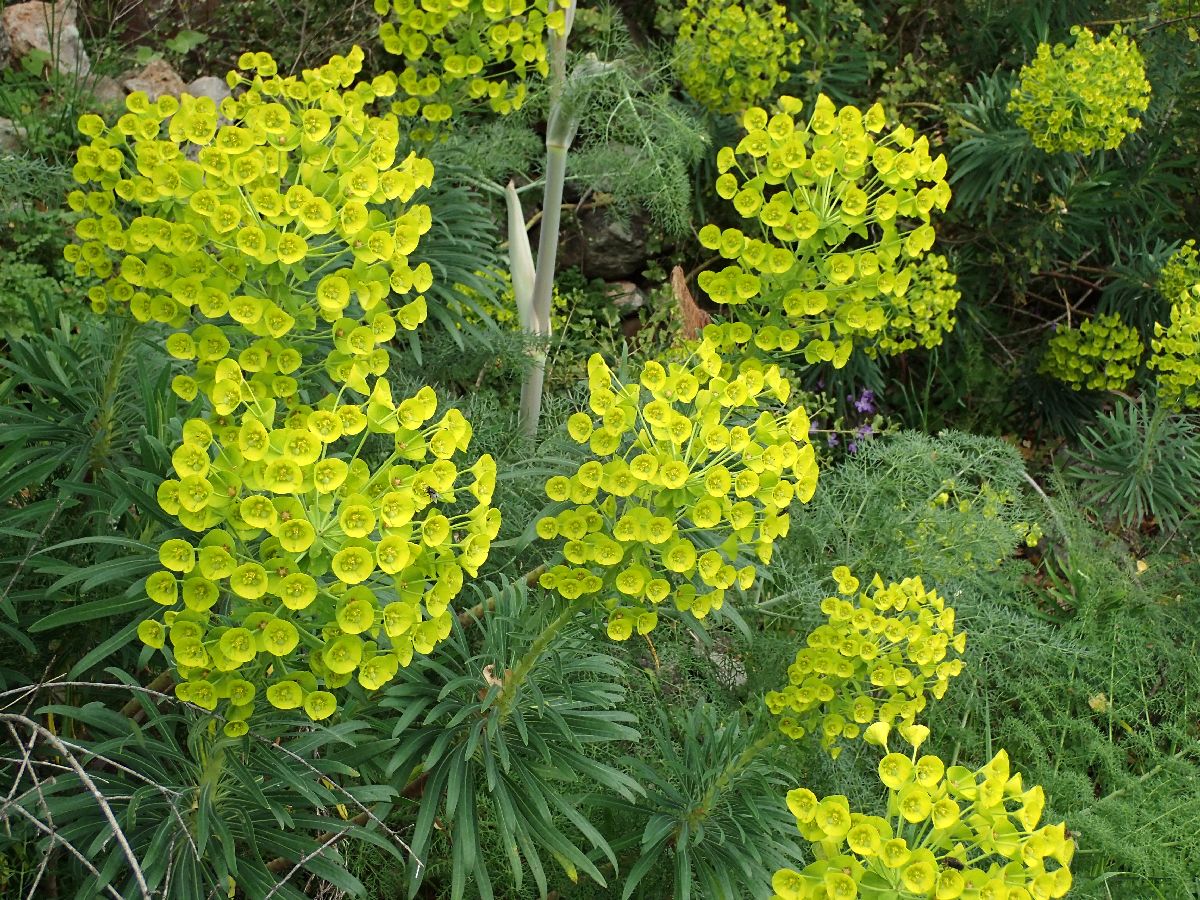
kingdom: Plantae
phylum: Tracheophyta
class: Magnoliopsida
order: Malpighiales
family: Euphorbiaceae
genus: Euphorbia
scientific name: Euphorbia characias
